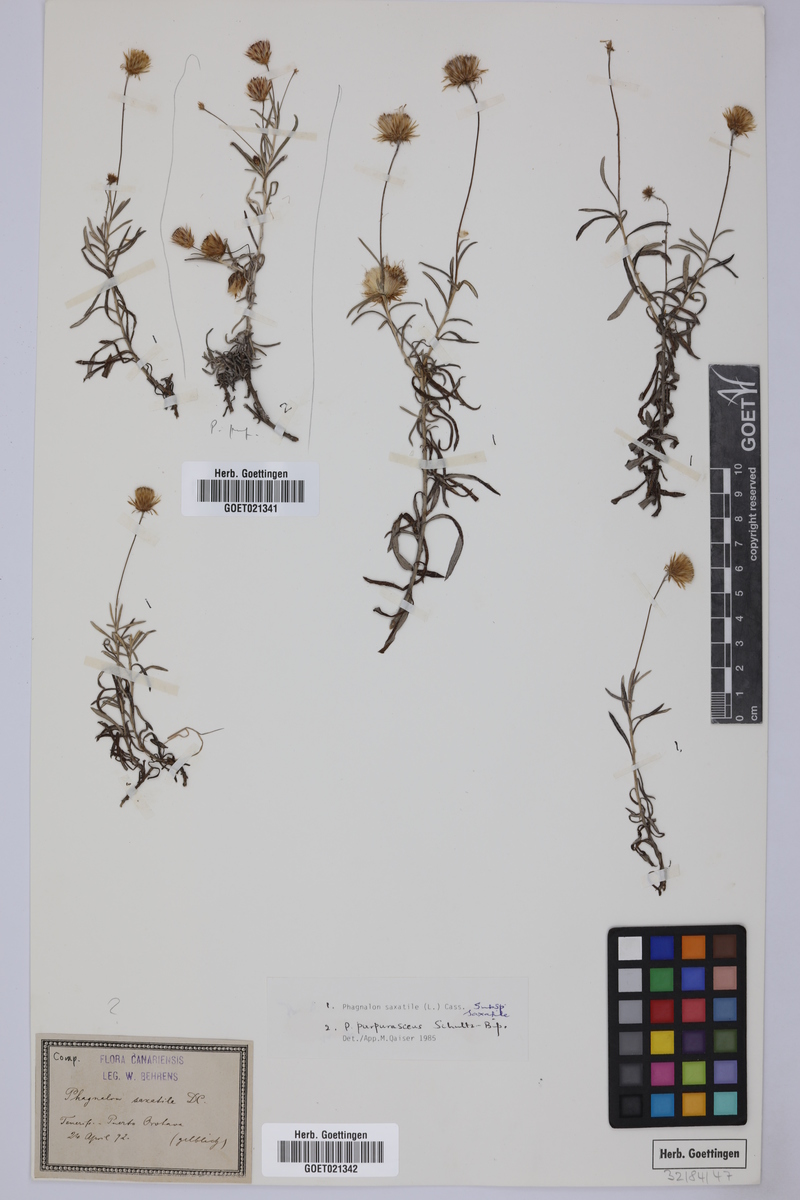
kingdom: Plantae
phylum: Tracheophyta
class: Magnoliopsida
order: Asterales
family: Asteraceae
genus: Phagnalon
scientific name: Phagnalon saxatile
